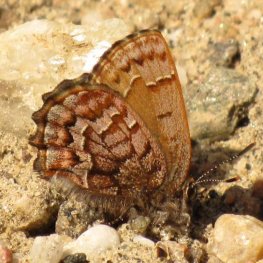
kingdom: Animalia
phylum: Arthropoda
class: Insecta
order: Lepidoptera
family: Lycaenidae
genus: Incisalia
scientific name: Incisalia niphon
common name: Eastern Pine Elfin
